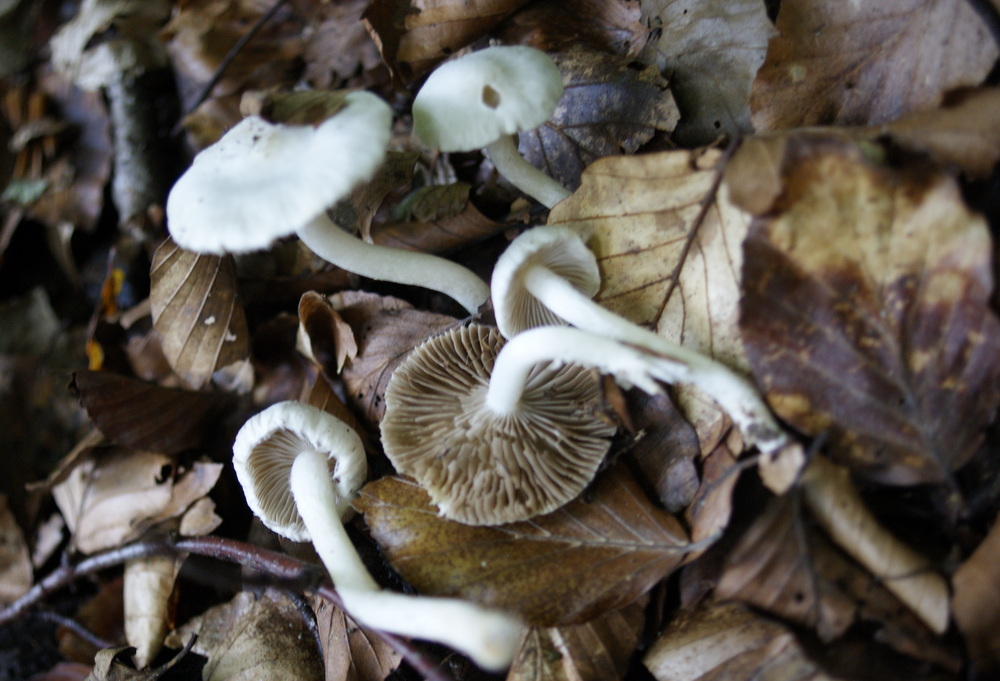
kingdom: Fungi
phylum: Basidiomycota
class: Agaricomycetes
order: Agaricales
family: Inocybaceae
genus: Inocybe
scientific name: Inocybe
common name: almindelig trævlhat
